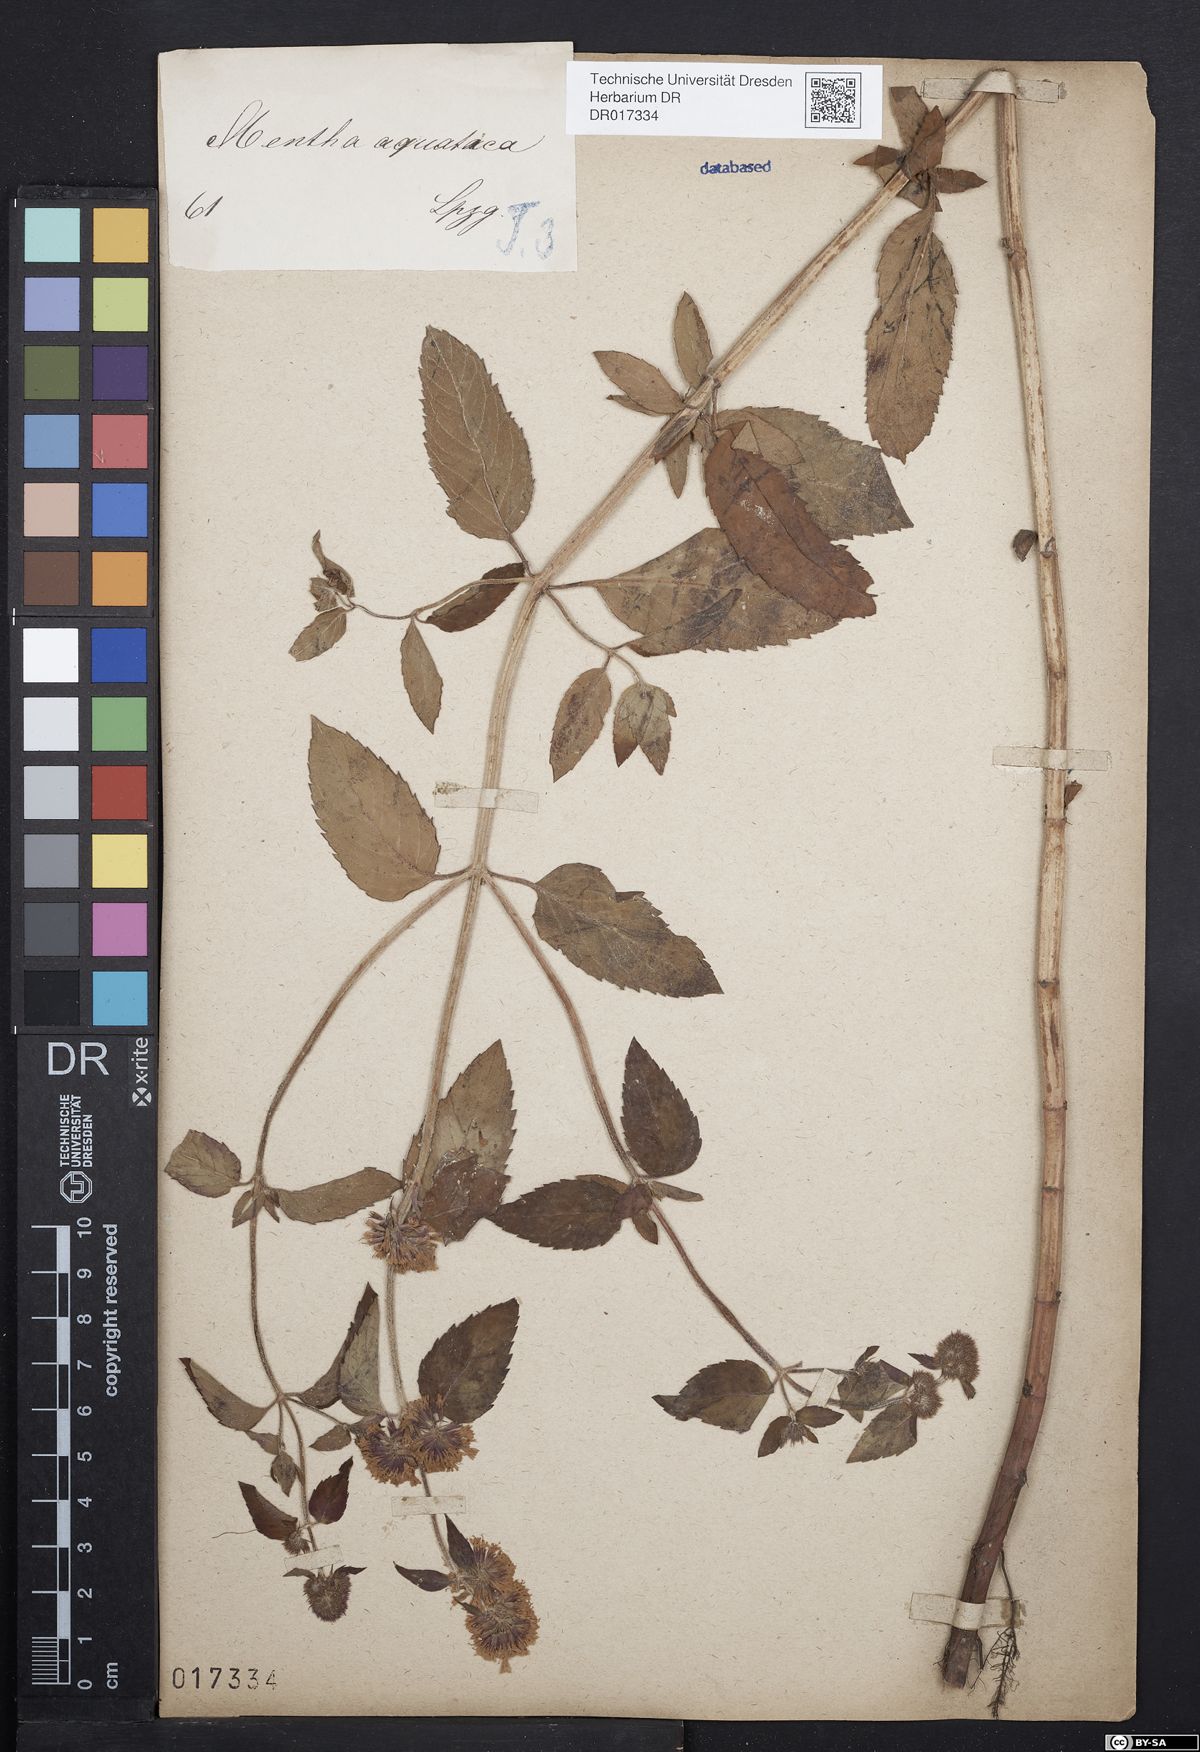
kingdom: Plantae
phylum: Tracheophyta
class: Magnoliopsida
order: Lamiales
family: Lamiaceae
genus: Mentha
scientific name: Mentha aquatica
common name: Water mint
